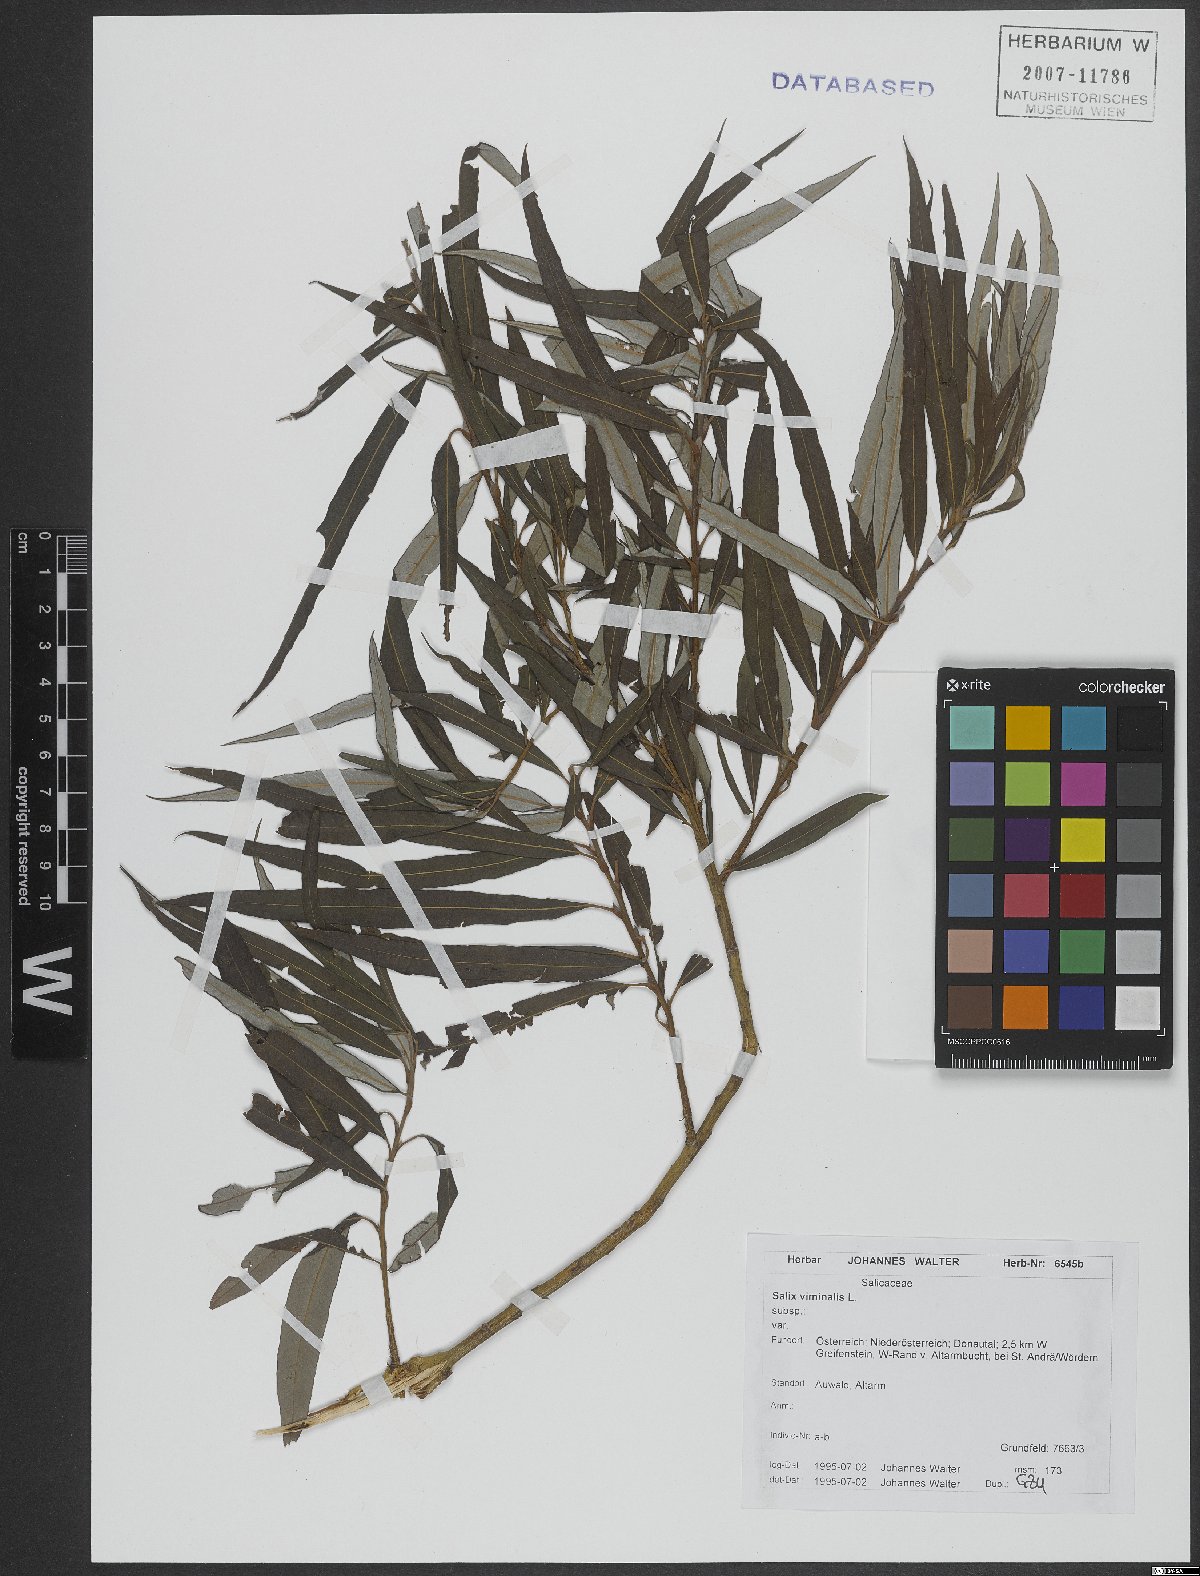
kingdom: Plantae
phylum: Tracheophyta
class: Magnoliopsida
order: Malpighiales
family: Salicaceae
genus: Salix
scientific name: Salix viminalis
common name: Osier
